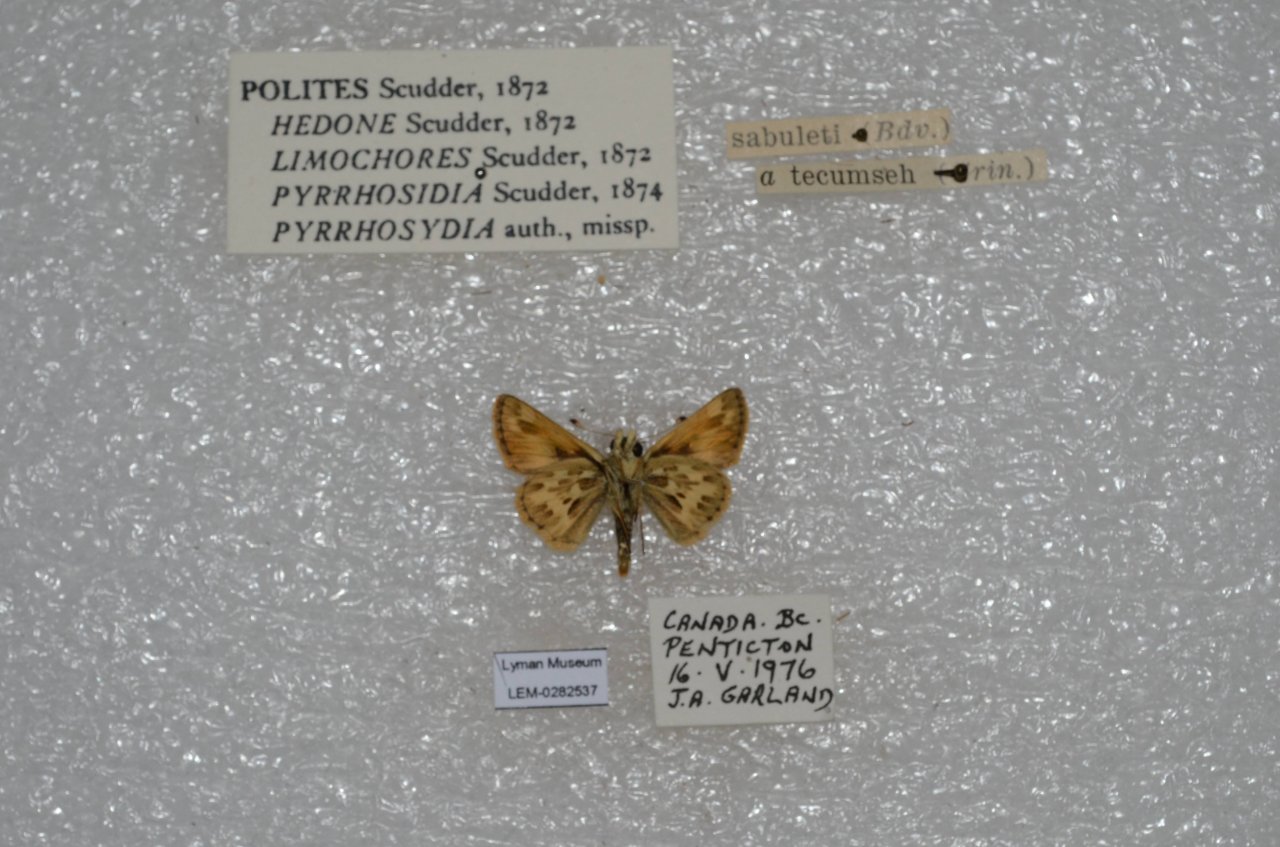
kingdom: Animalia
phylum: Arthropoda
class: Insecta
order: Lepidoptera
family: Hesperiidae
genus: Polites
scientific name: Polites sabuleti
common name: Sandhill Skipper
